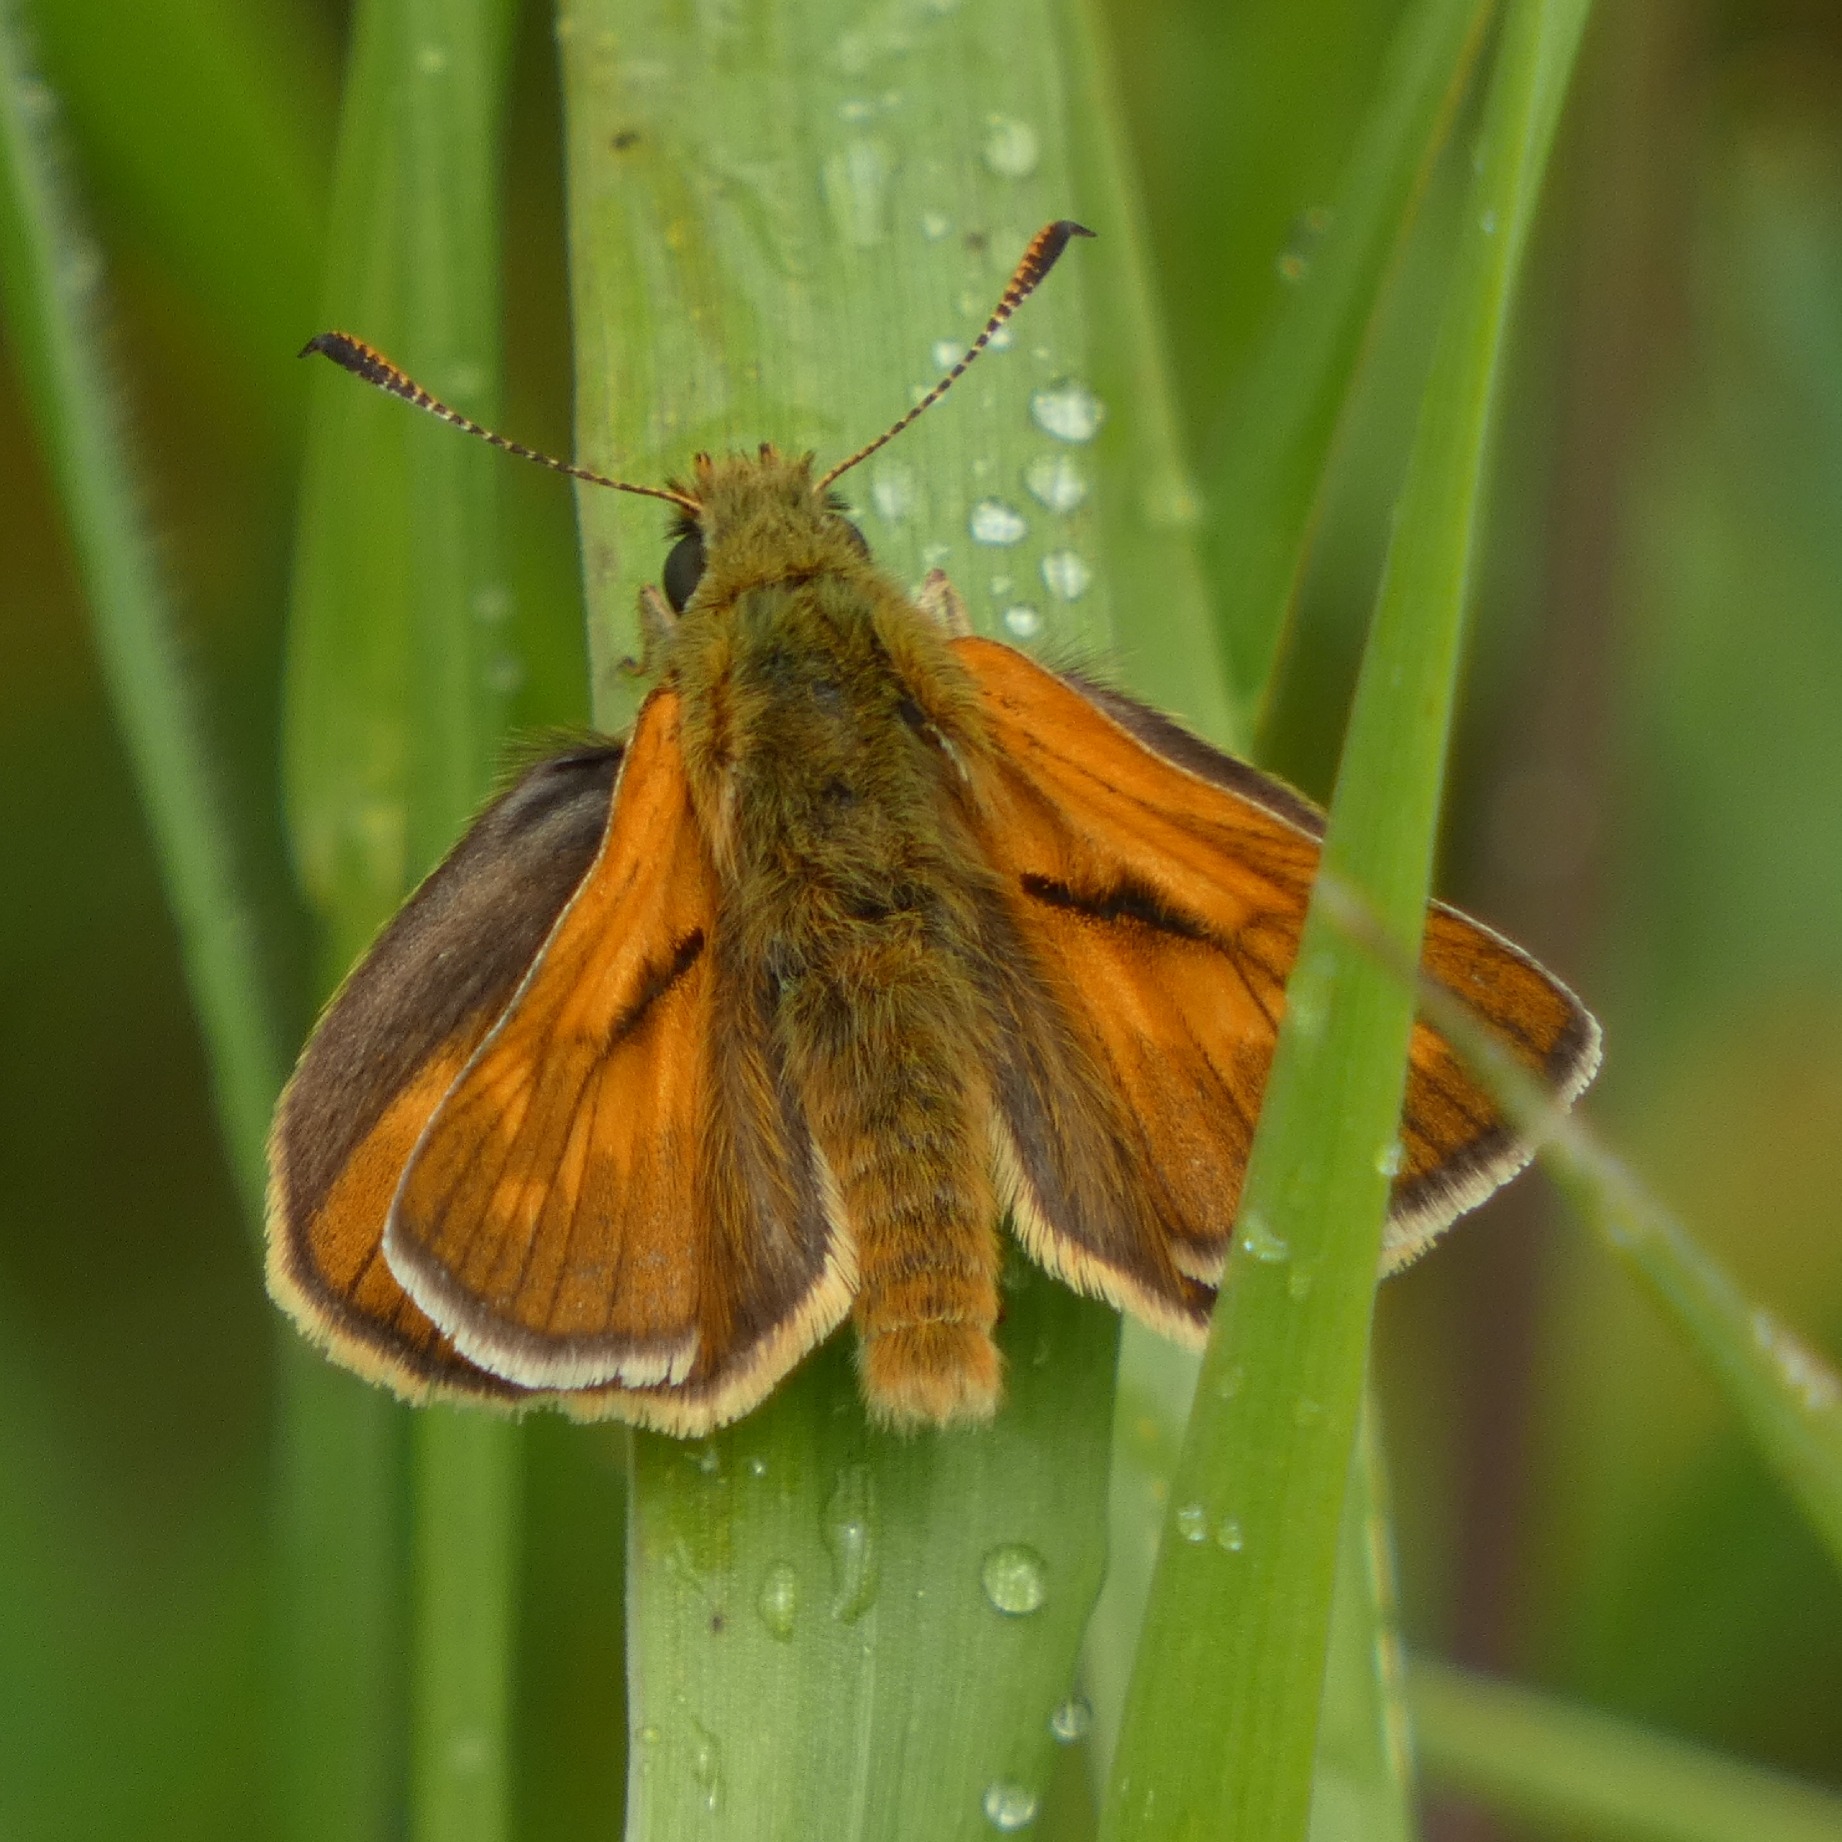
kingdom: Animalia
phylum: Arthropoda
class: Insecta
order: Lepidoptera
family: Hesperiidae
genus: Ochlodes
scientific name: Ochlodes venata
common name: Stor bredpande
